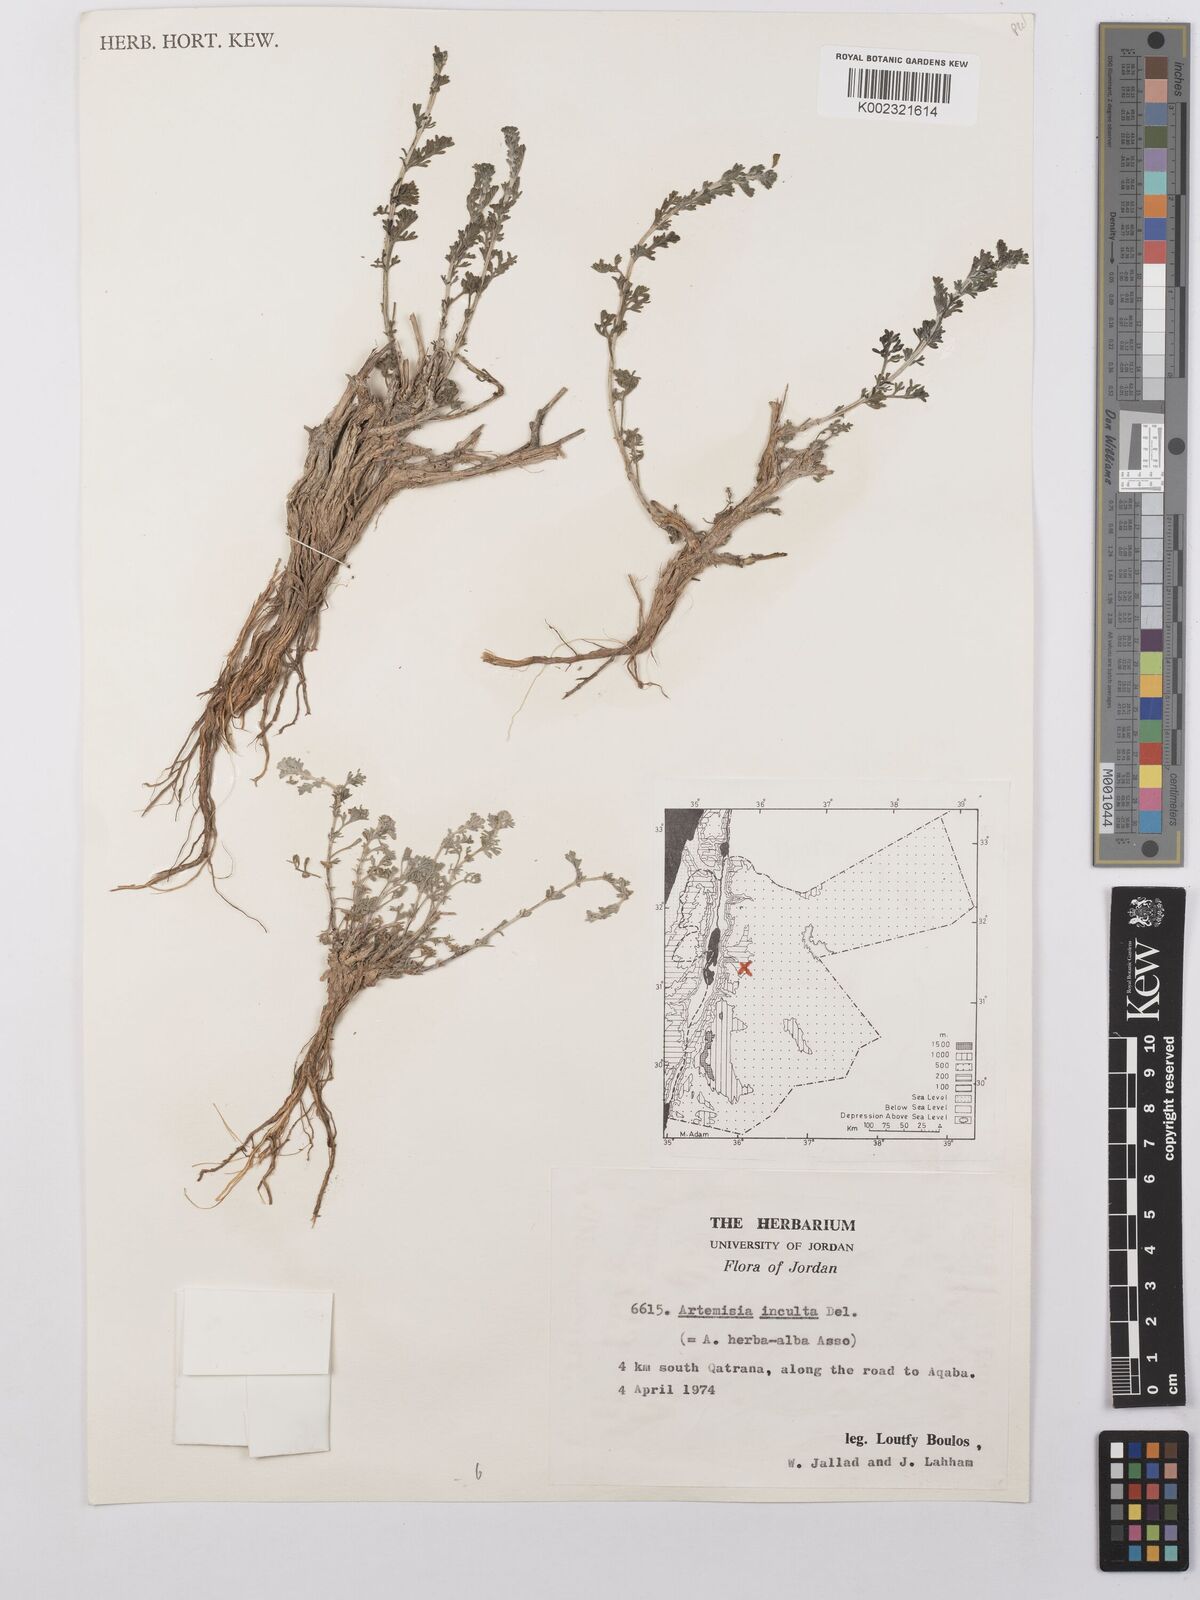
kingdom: Plantae
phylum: Tracheophyta
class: Magnoliopsida
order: Asterales
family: Asteraceae
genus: Artemisia
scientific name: Artemisia herba-alba
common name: White wormwood
